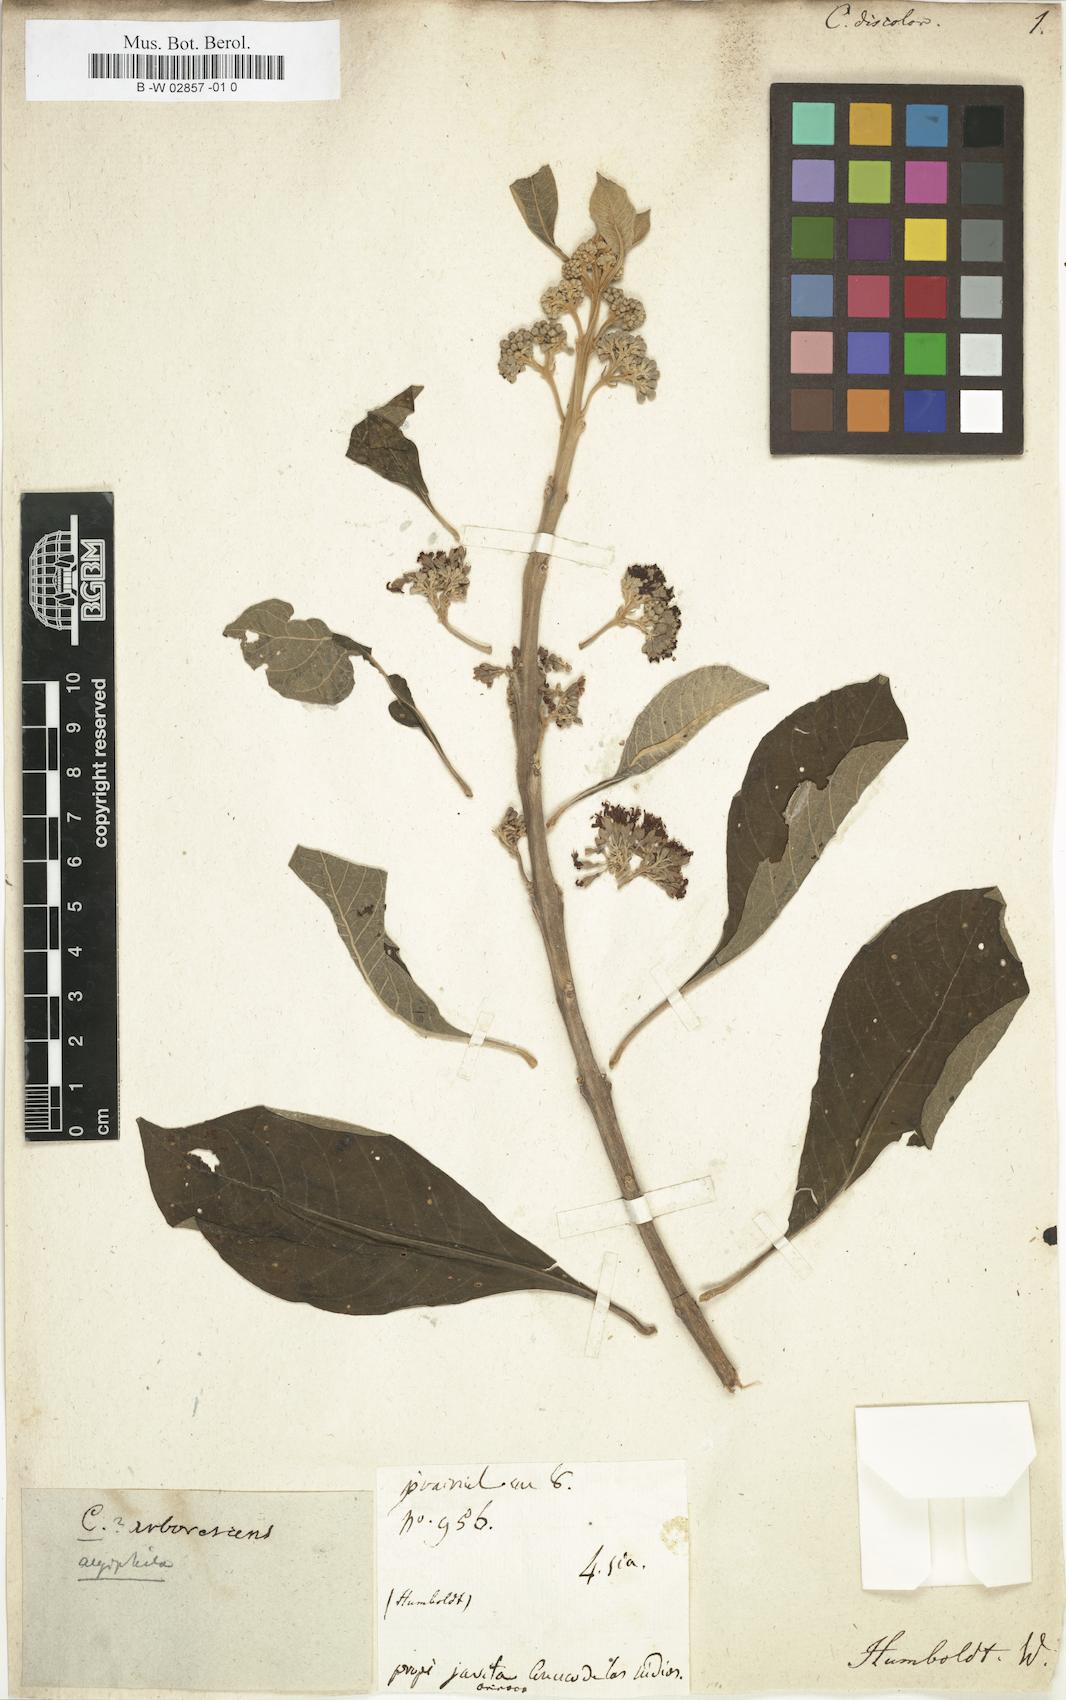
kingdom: Plantae
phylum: Tracheophyta
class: Magnoliopsida
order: Lamiales
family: Lamiaceae
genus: Aegiphila
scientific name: Aegiphila integrifolia
